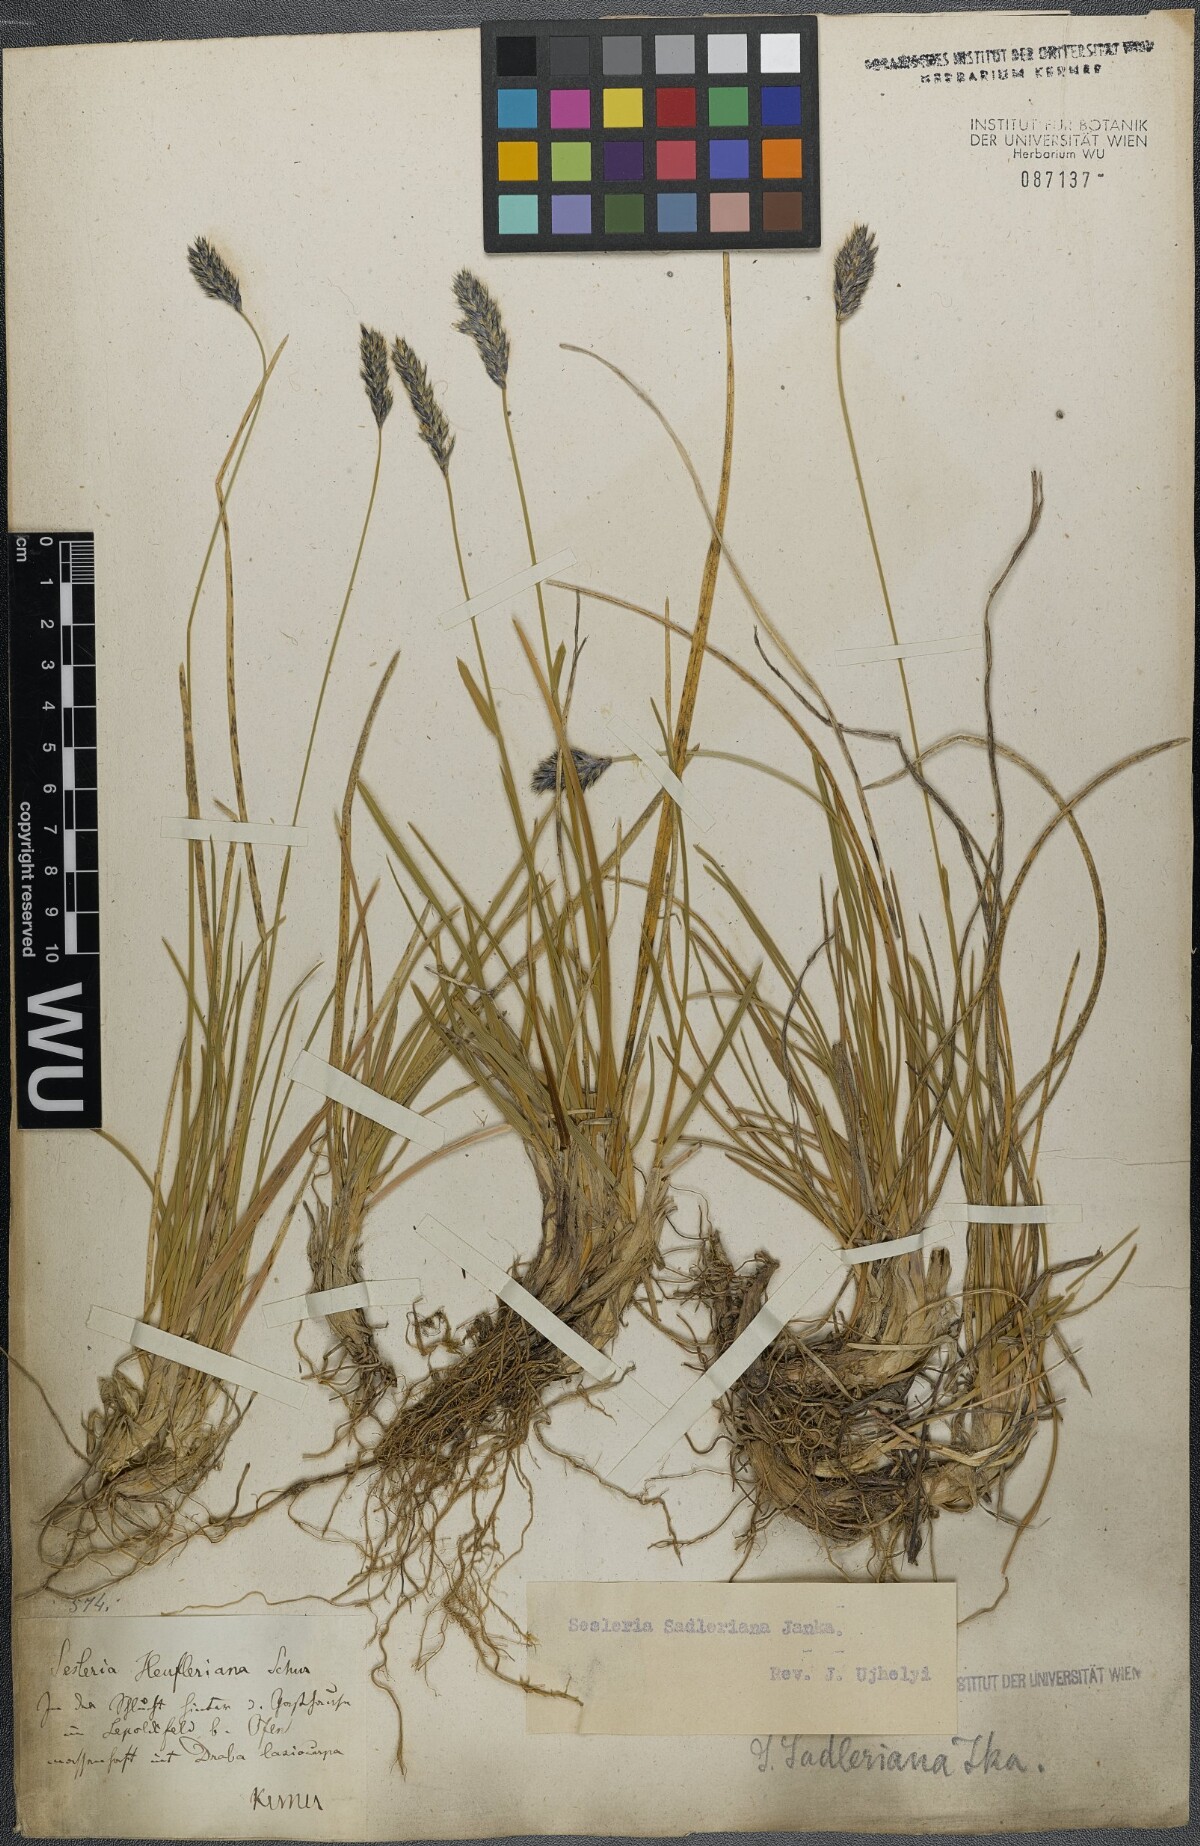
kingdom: Plantae
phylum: Tracheophyta
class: Liliopsida
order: Poales
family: Poaceae
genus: Sesleria
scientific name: Sesleria sadleriana
